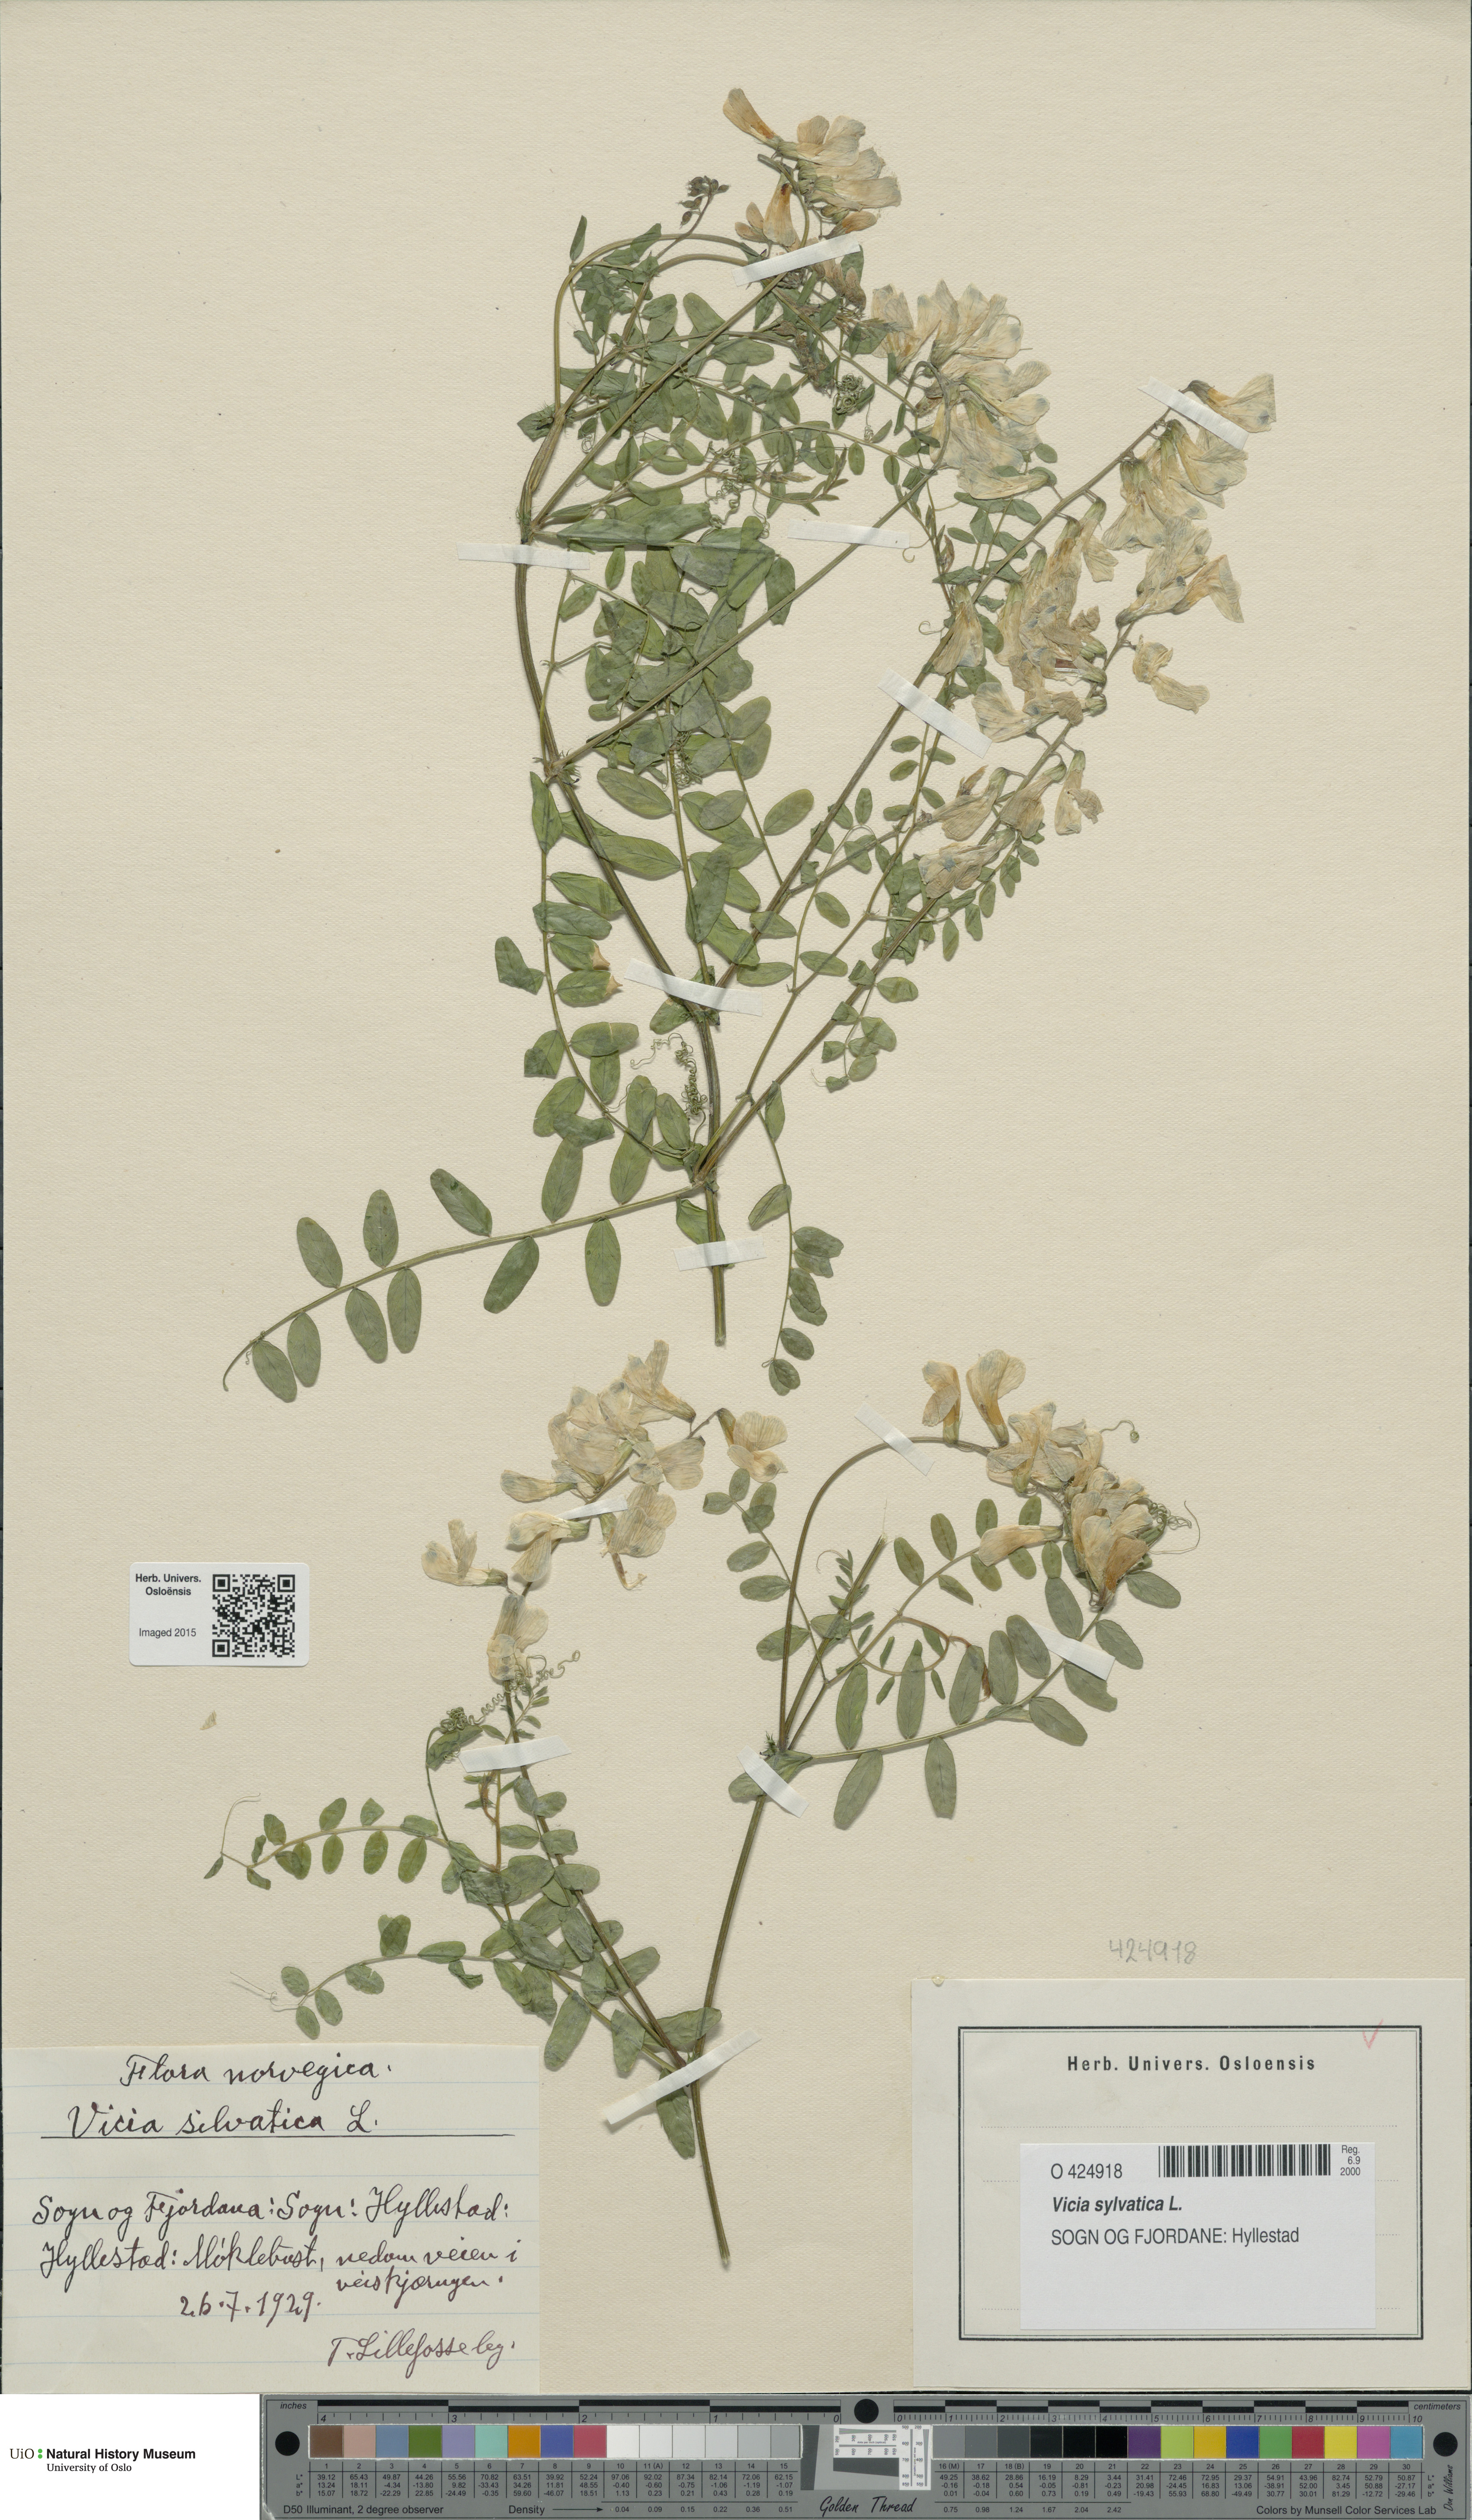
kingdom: Plantae
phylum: Tracheophyta
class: Magnoliopsida
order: Fabales
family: Fabaceae
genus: Vicia
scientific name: Vicia sylvatica
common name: Wood vetch
